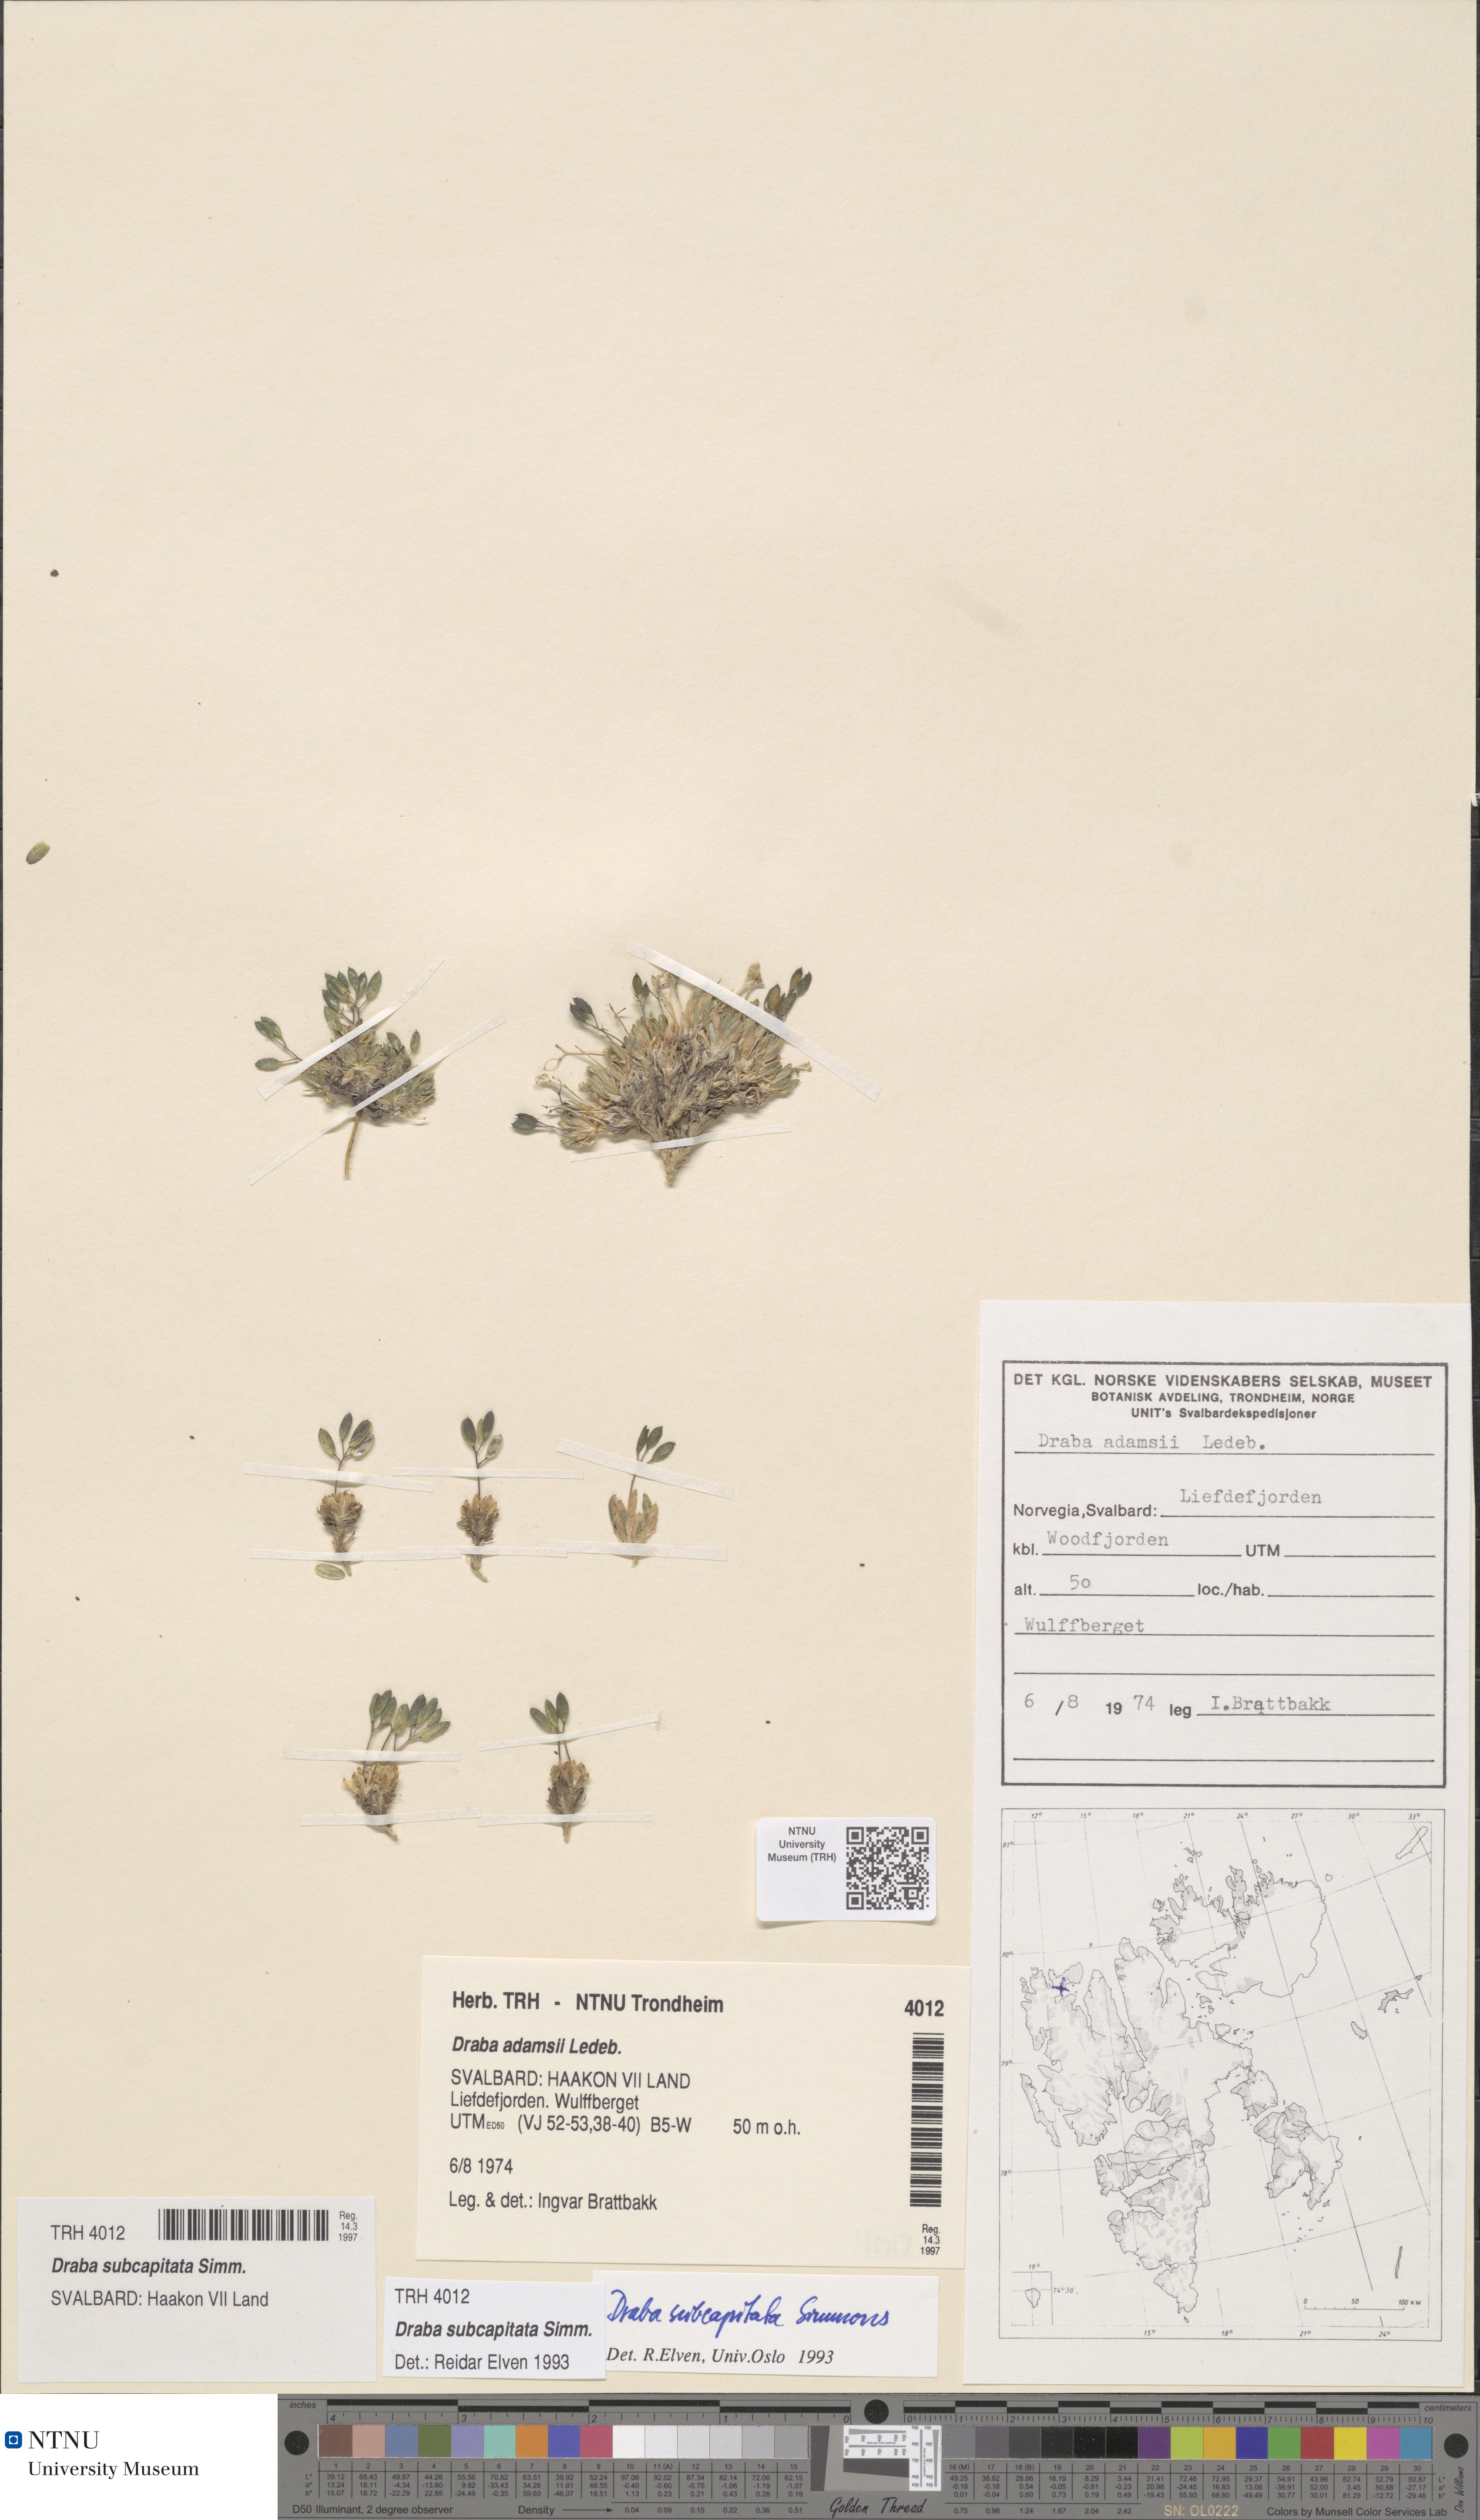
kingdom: Plantae
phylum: Tracheophyta
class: Magnoliopsida
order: Brassicales
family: Brassicaceae
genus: Draba
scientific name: Draba subcapitata
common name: Ellesmere island draba
